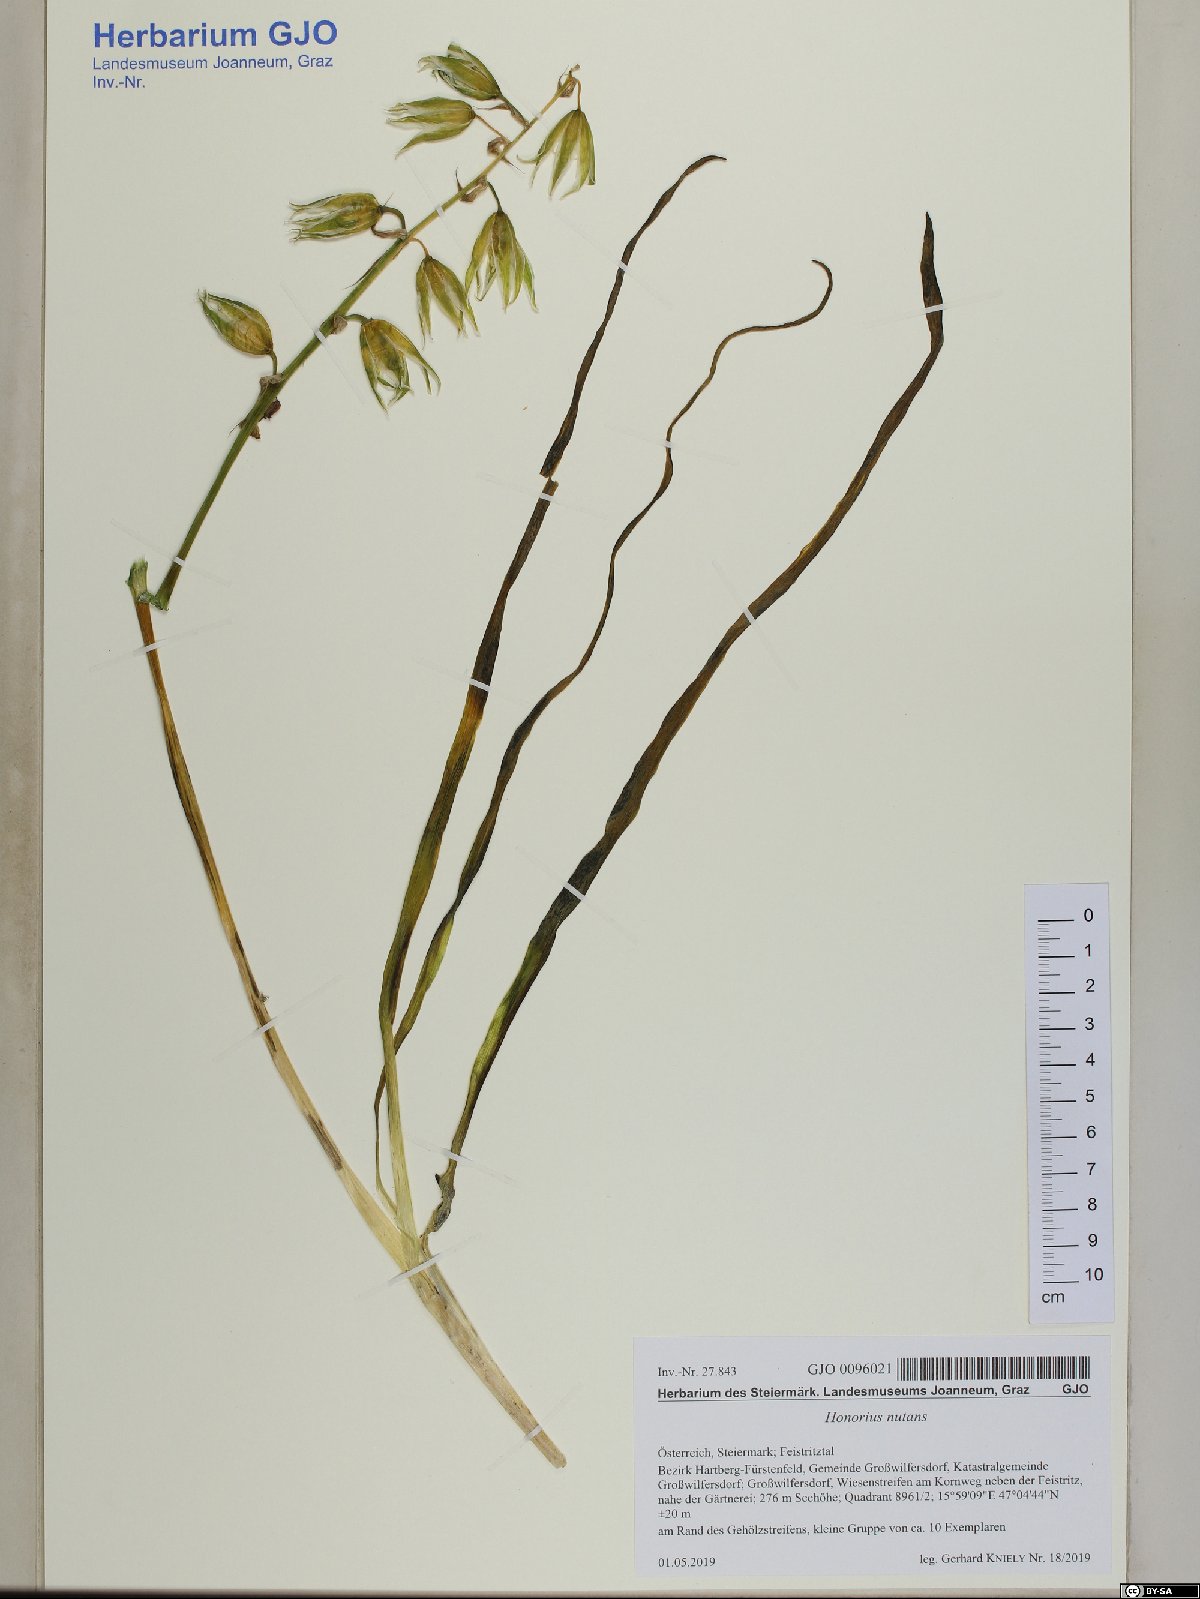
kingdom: Plantae
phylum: Tracheophyta
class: Liliopsida
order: Asparagales
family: Asparagaceae
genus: Ornithogalum
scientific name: Ornithogalum nutans
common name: Drooping star-of-bethlehem
